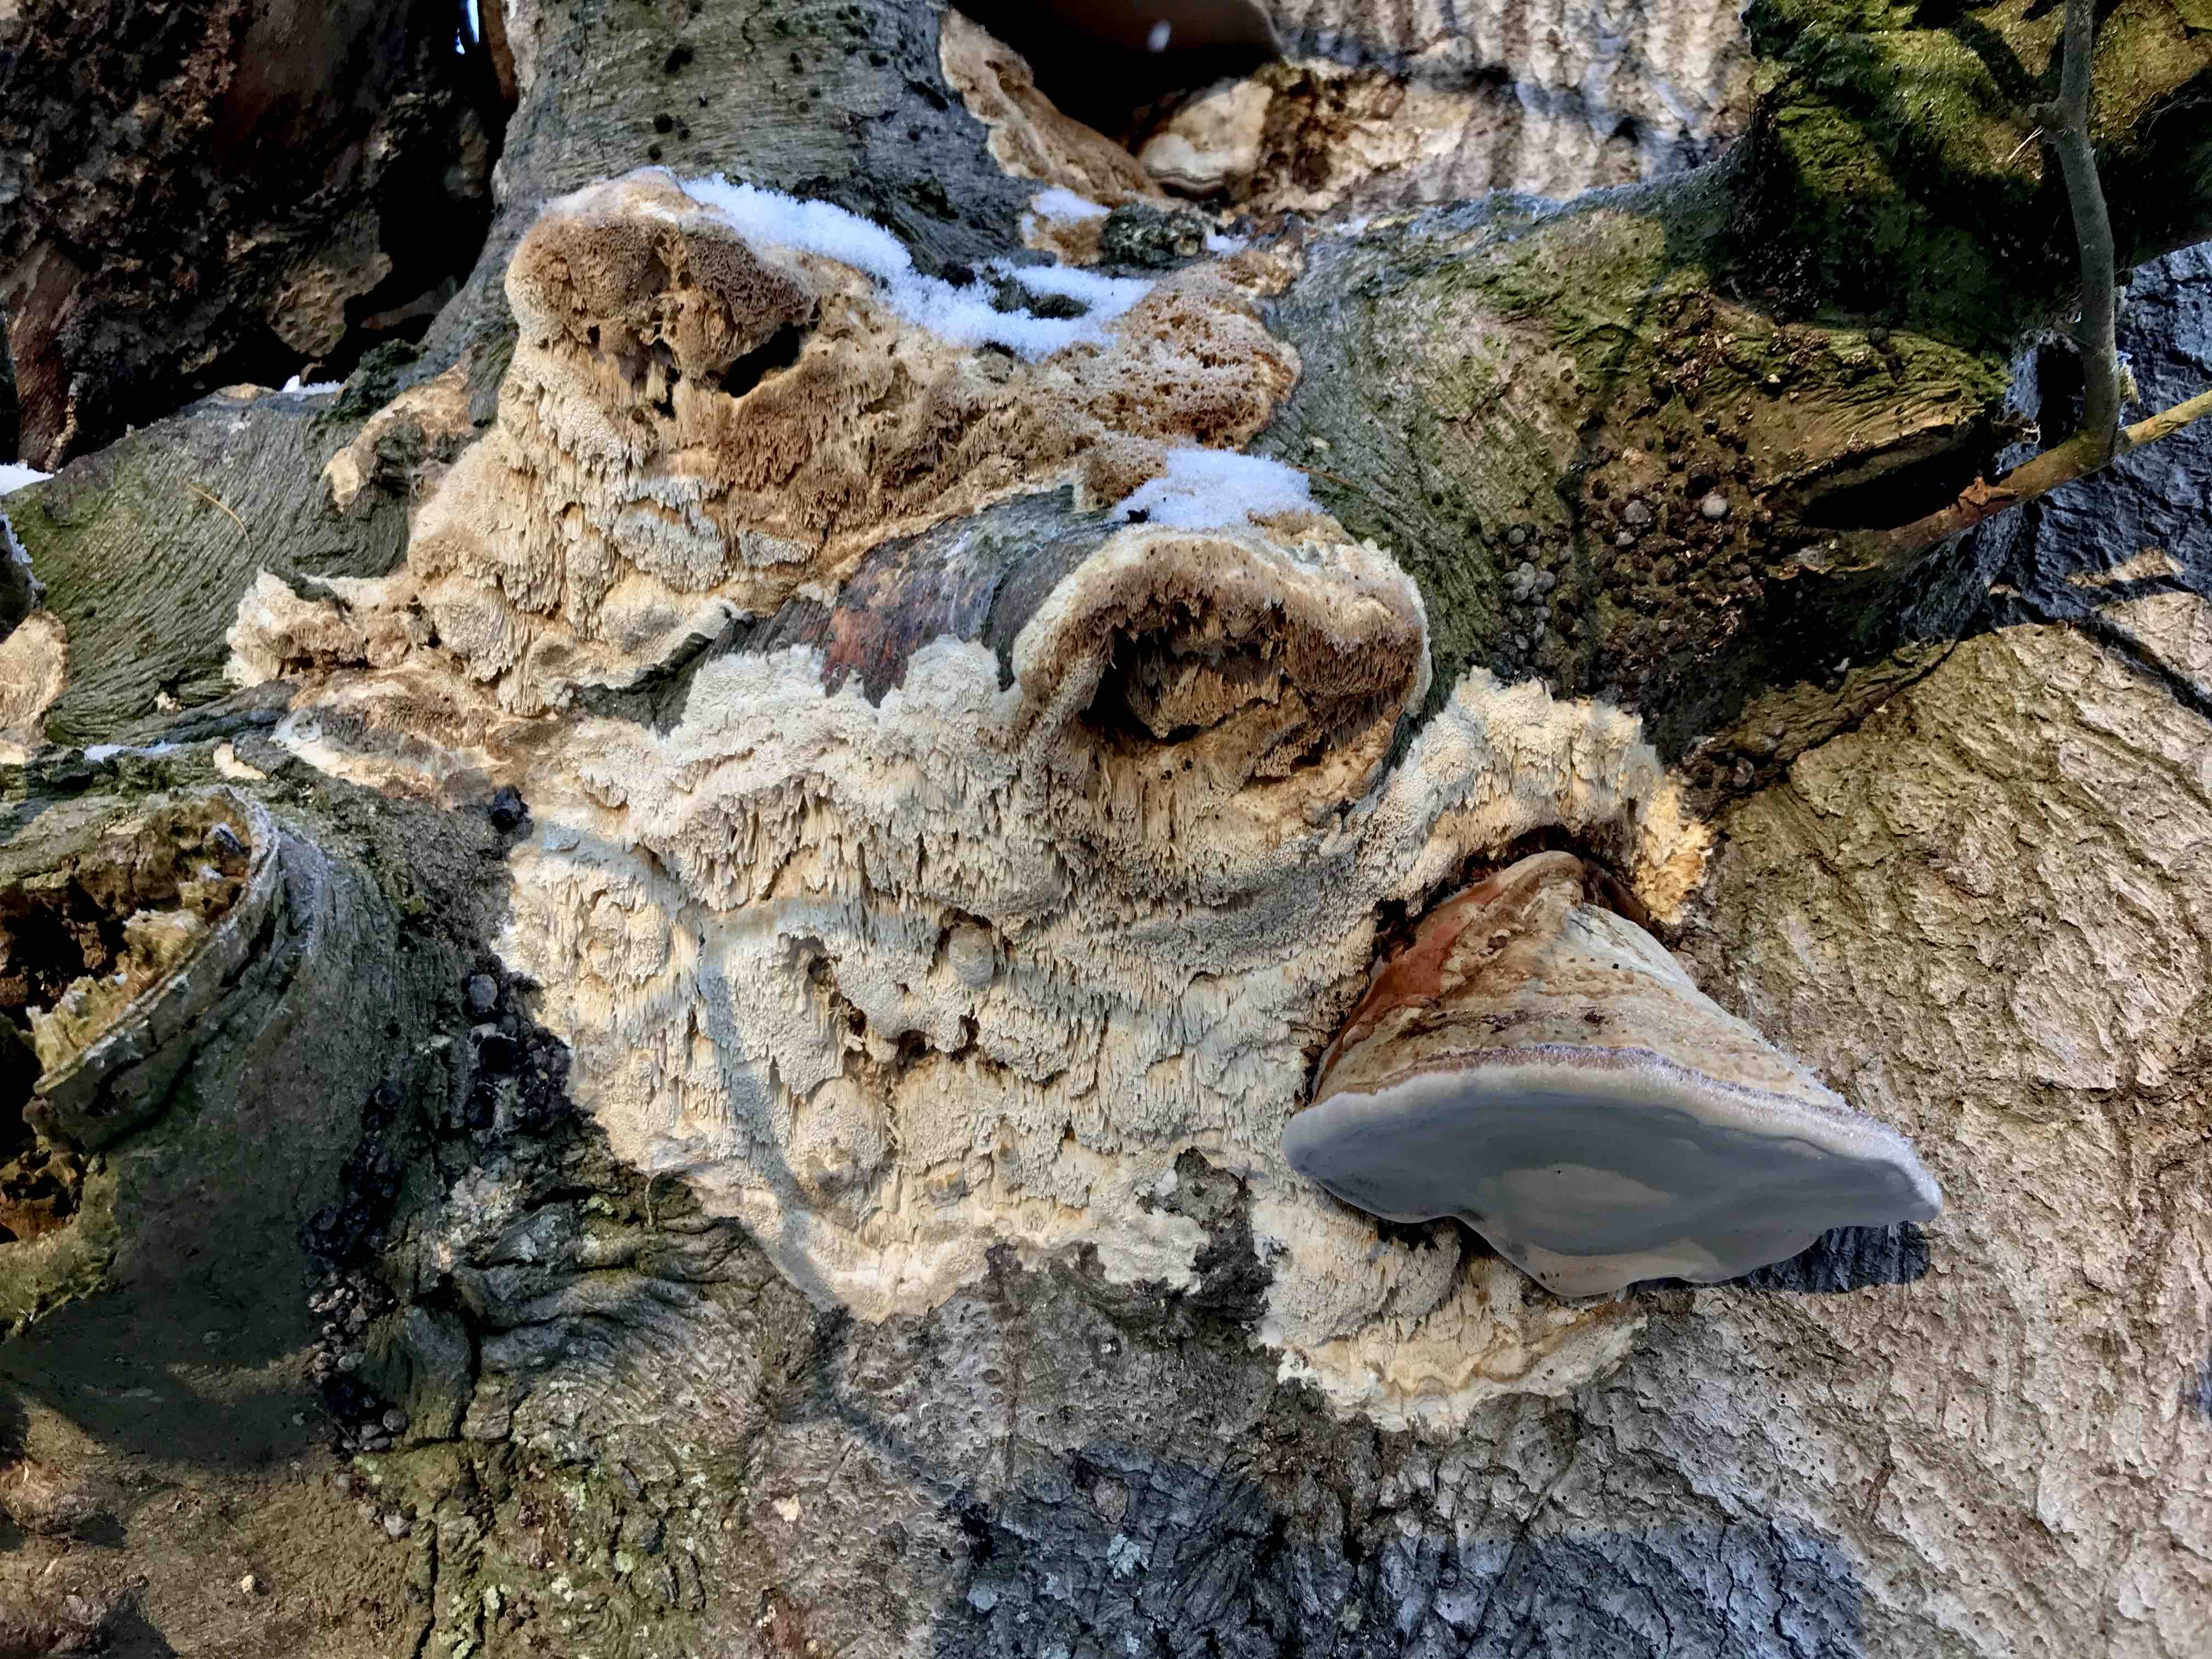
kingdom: Fungi
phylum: Basidiomycota
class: Agaricomycetes
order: Hymenochaetales
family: Hymenochaetaceae
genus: Mensularia
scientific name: Mensularia nodulosa
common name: bøge-spejlporesvamp
